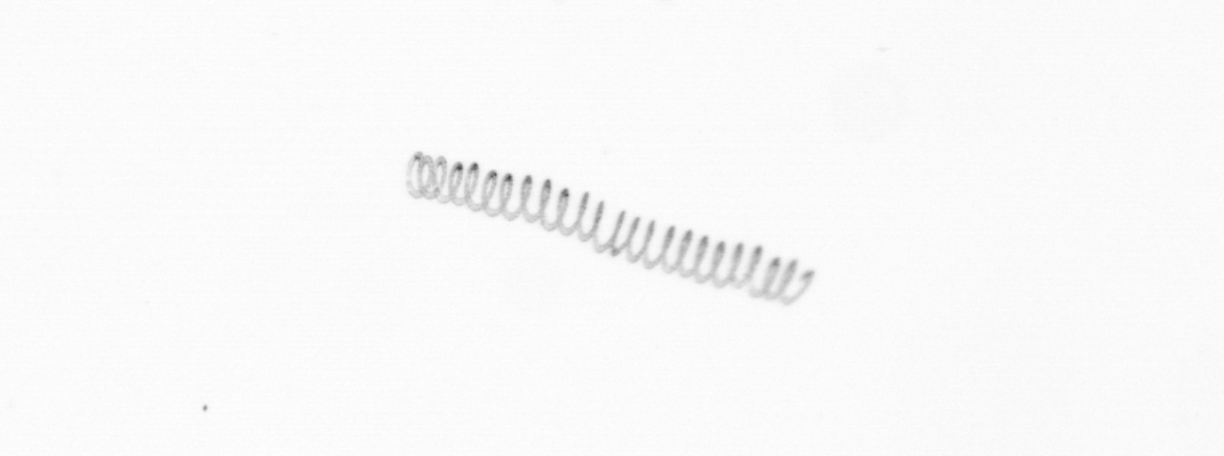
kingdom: Chromista
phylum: Ochrophyta
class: Bacillariophyceae
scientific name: Bacillariophyceae
